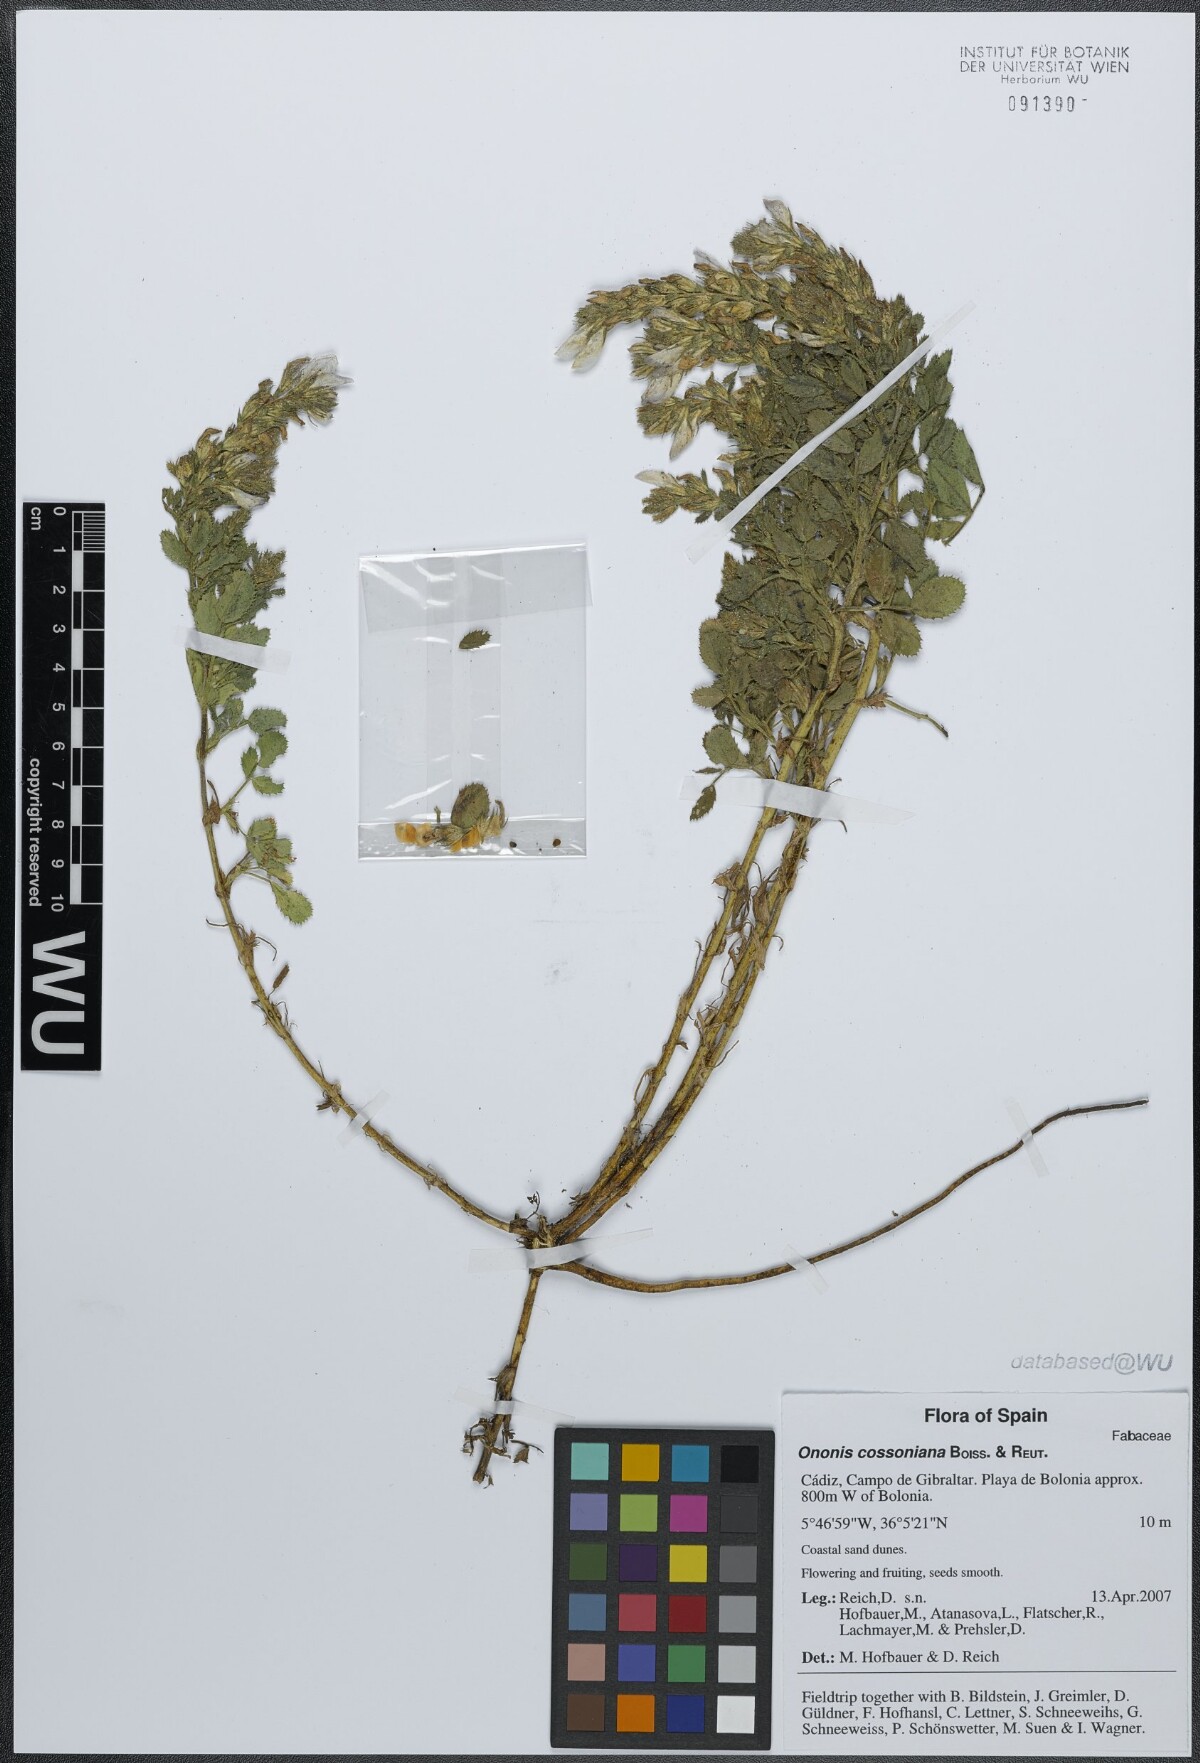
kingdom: Plantae
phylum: Tracheophyta
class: Magnoliopsida
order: Fabales
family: Fabaceae
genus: Ononis
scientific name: Ononis cossoniana
